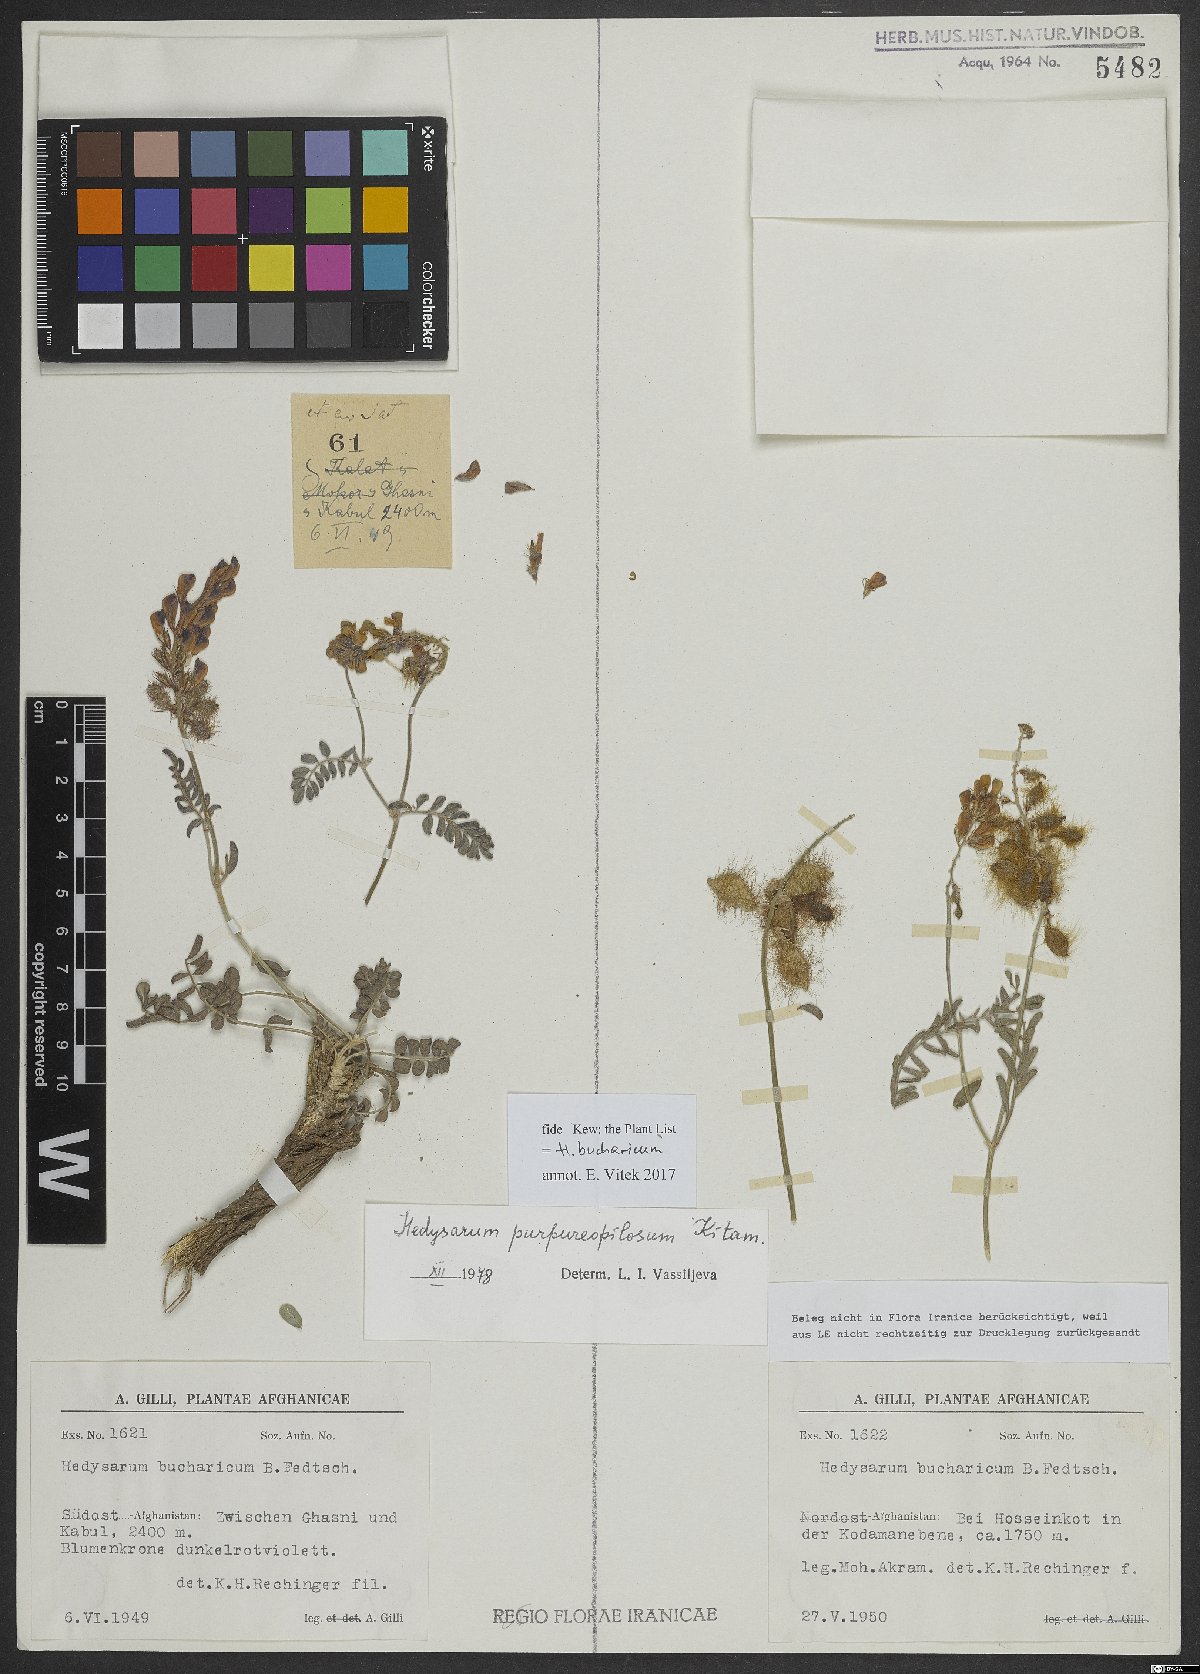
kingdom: Plantae
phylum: Tracheophyta
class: Magnoliopsida
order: Fabales
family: Fabaceae
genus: Hedysarum
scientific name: Hedysarum bucharicum
